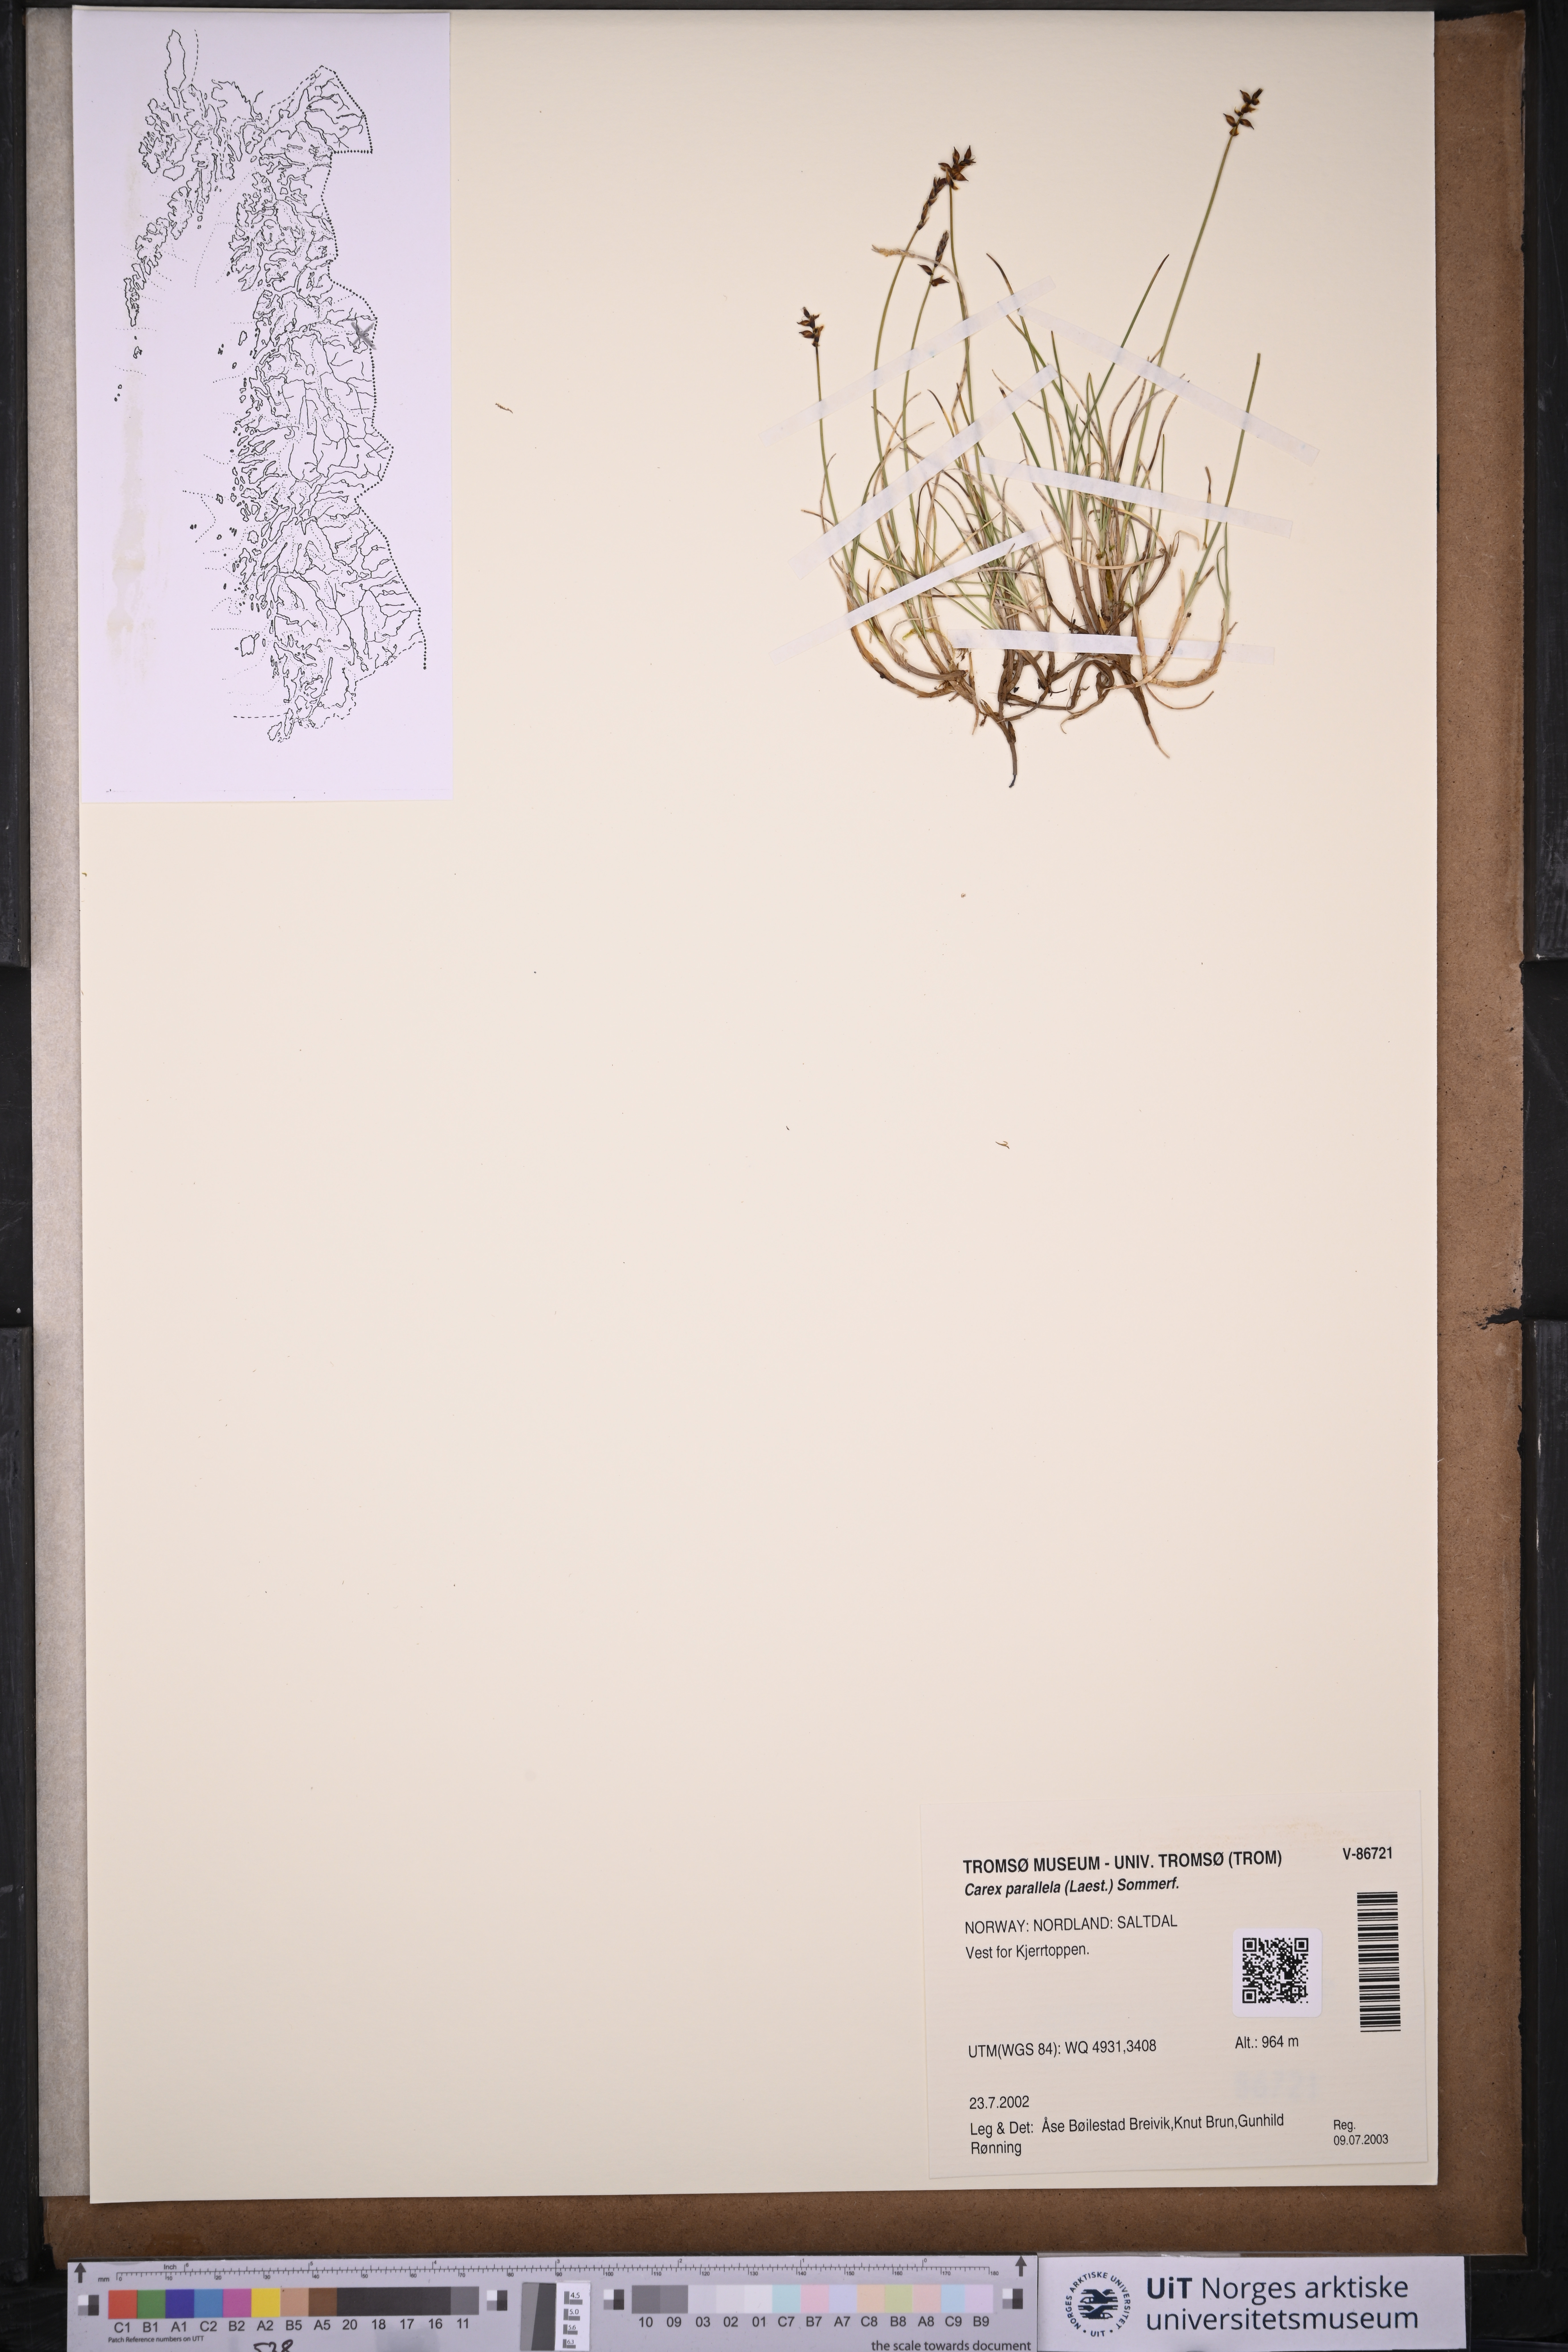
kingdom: Plantae
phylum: Tracheophyta
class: Liliopsida
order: Poales
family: Cyperaceae
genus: Carex
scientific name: Carex parallela
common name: Parallel sedge
